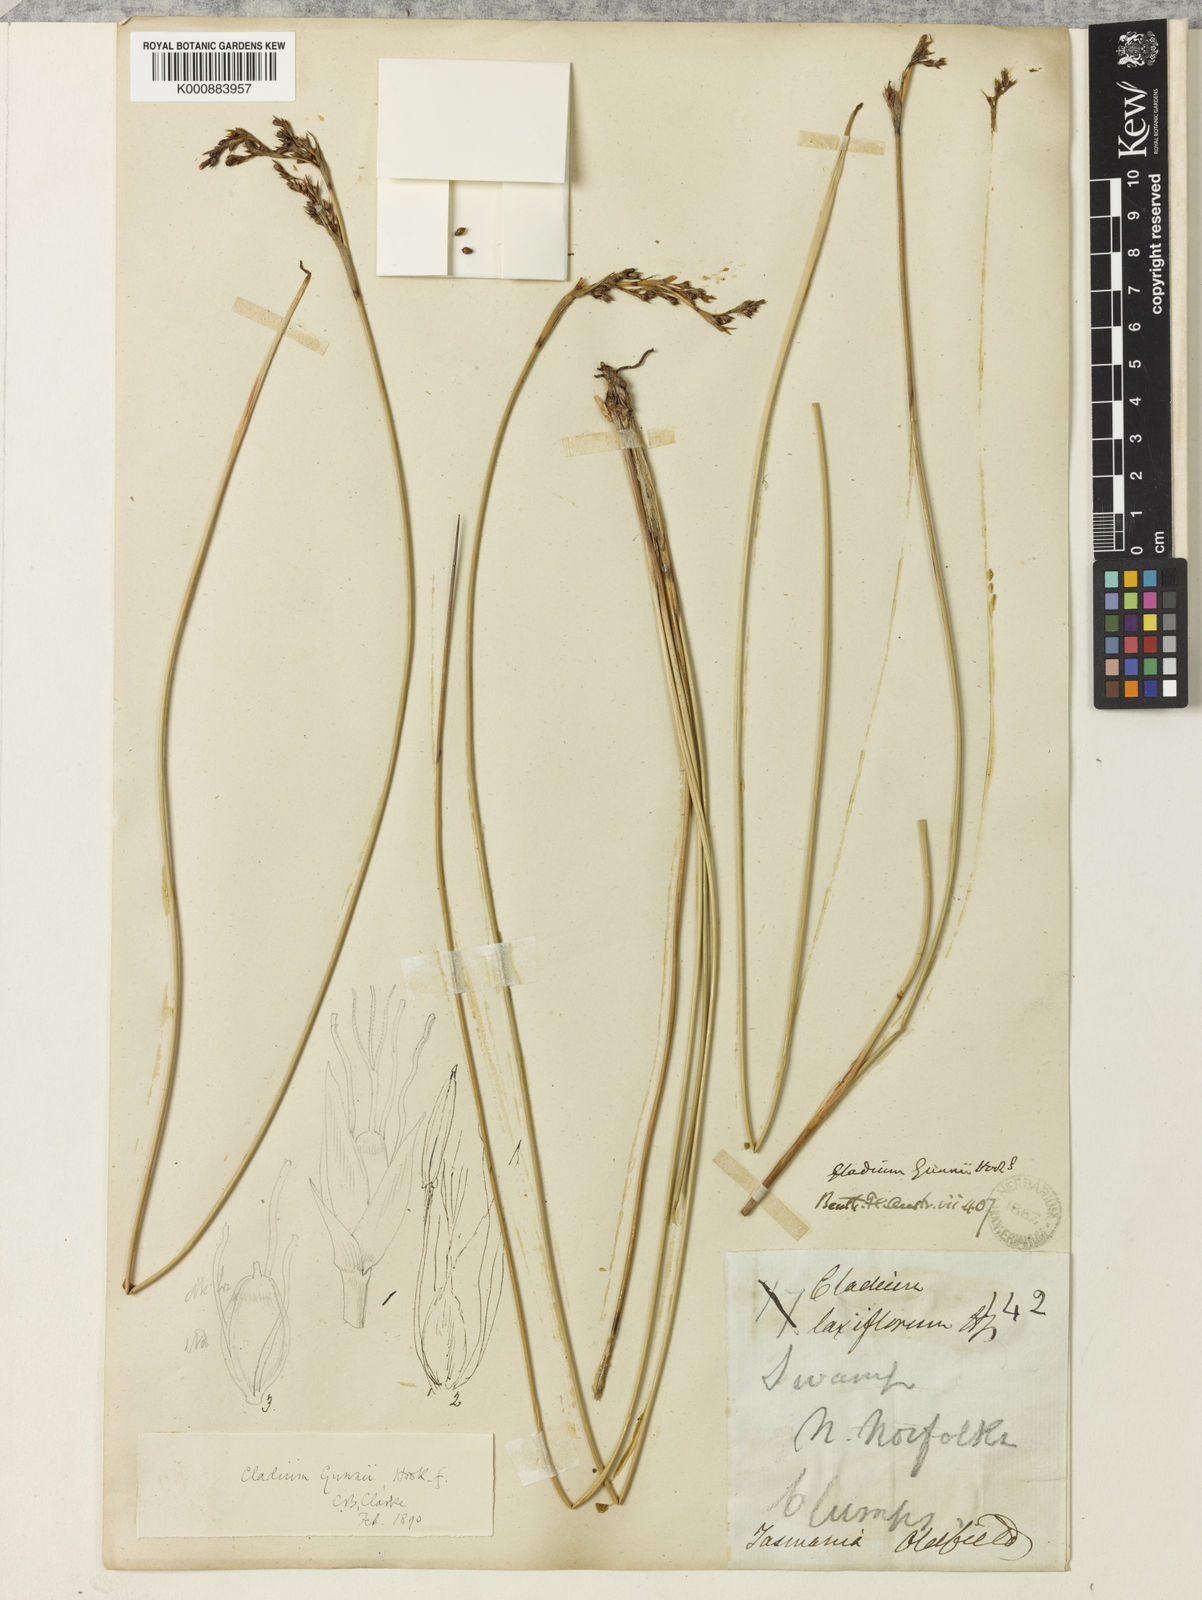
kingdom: Plantae
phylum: Tracheophyta
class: Liliopsida
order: Poales
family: Cyperaceae
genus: Machaerina
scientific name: Machaerina gunnii
